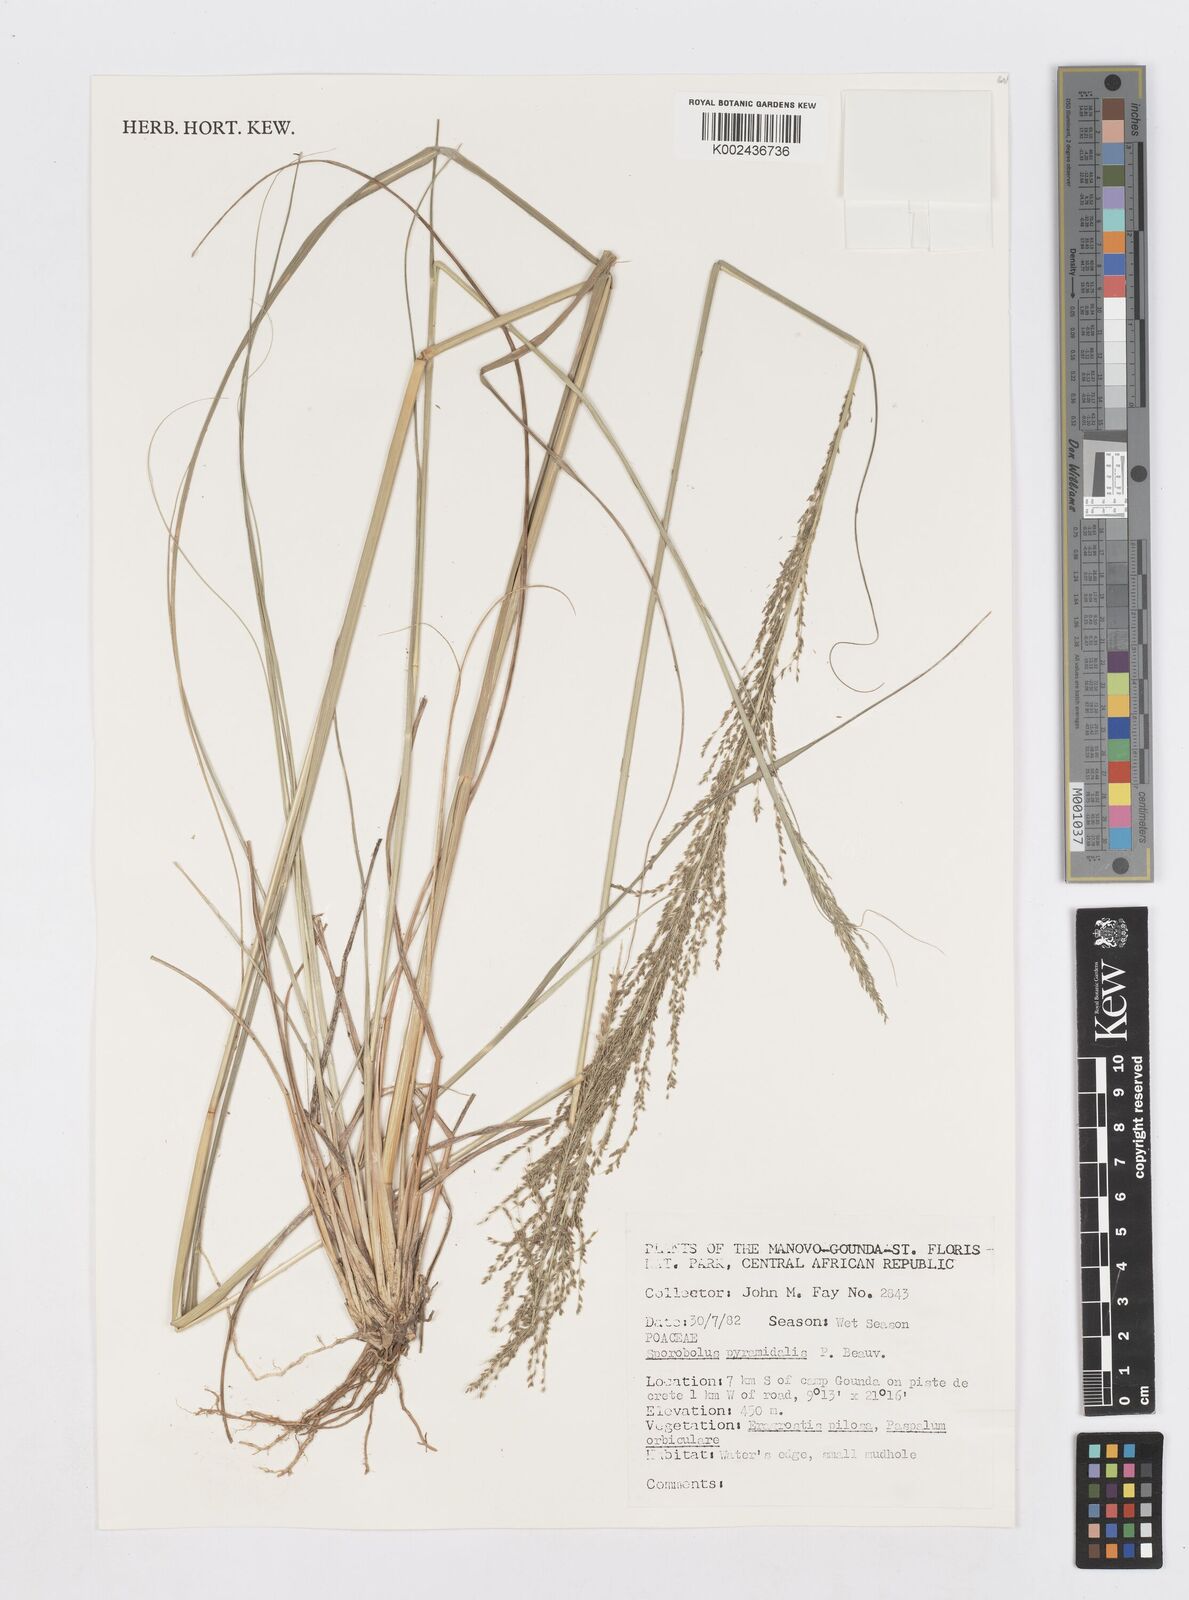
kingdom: Plantae
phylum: Tracheophyta
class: Liliopsida
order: Poales
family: Poaceae
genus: Sporobolus
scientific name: Sporobolus pyramidalis
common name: West indian dropseed
